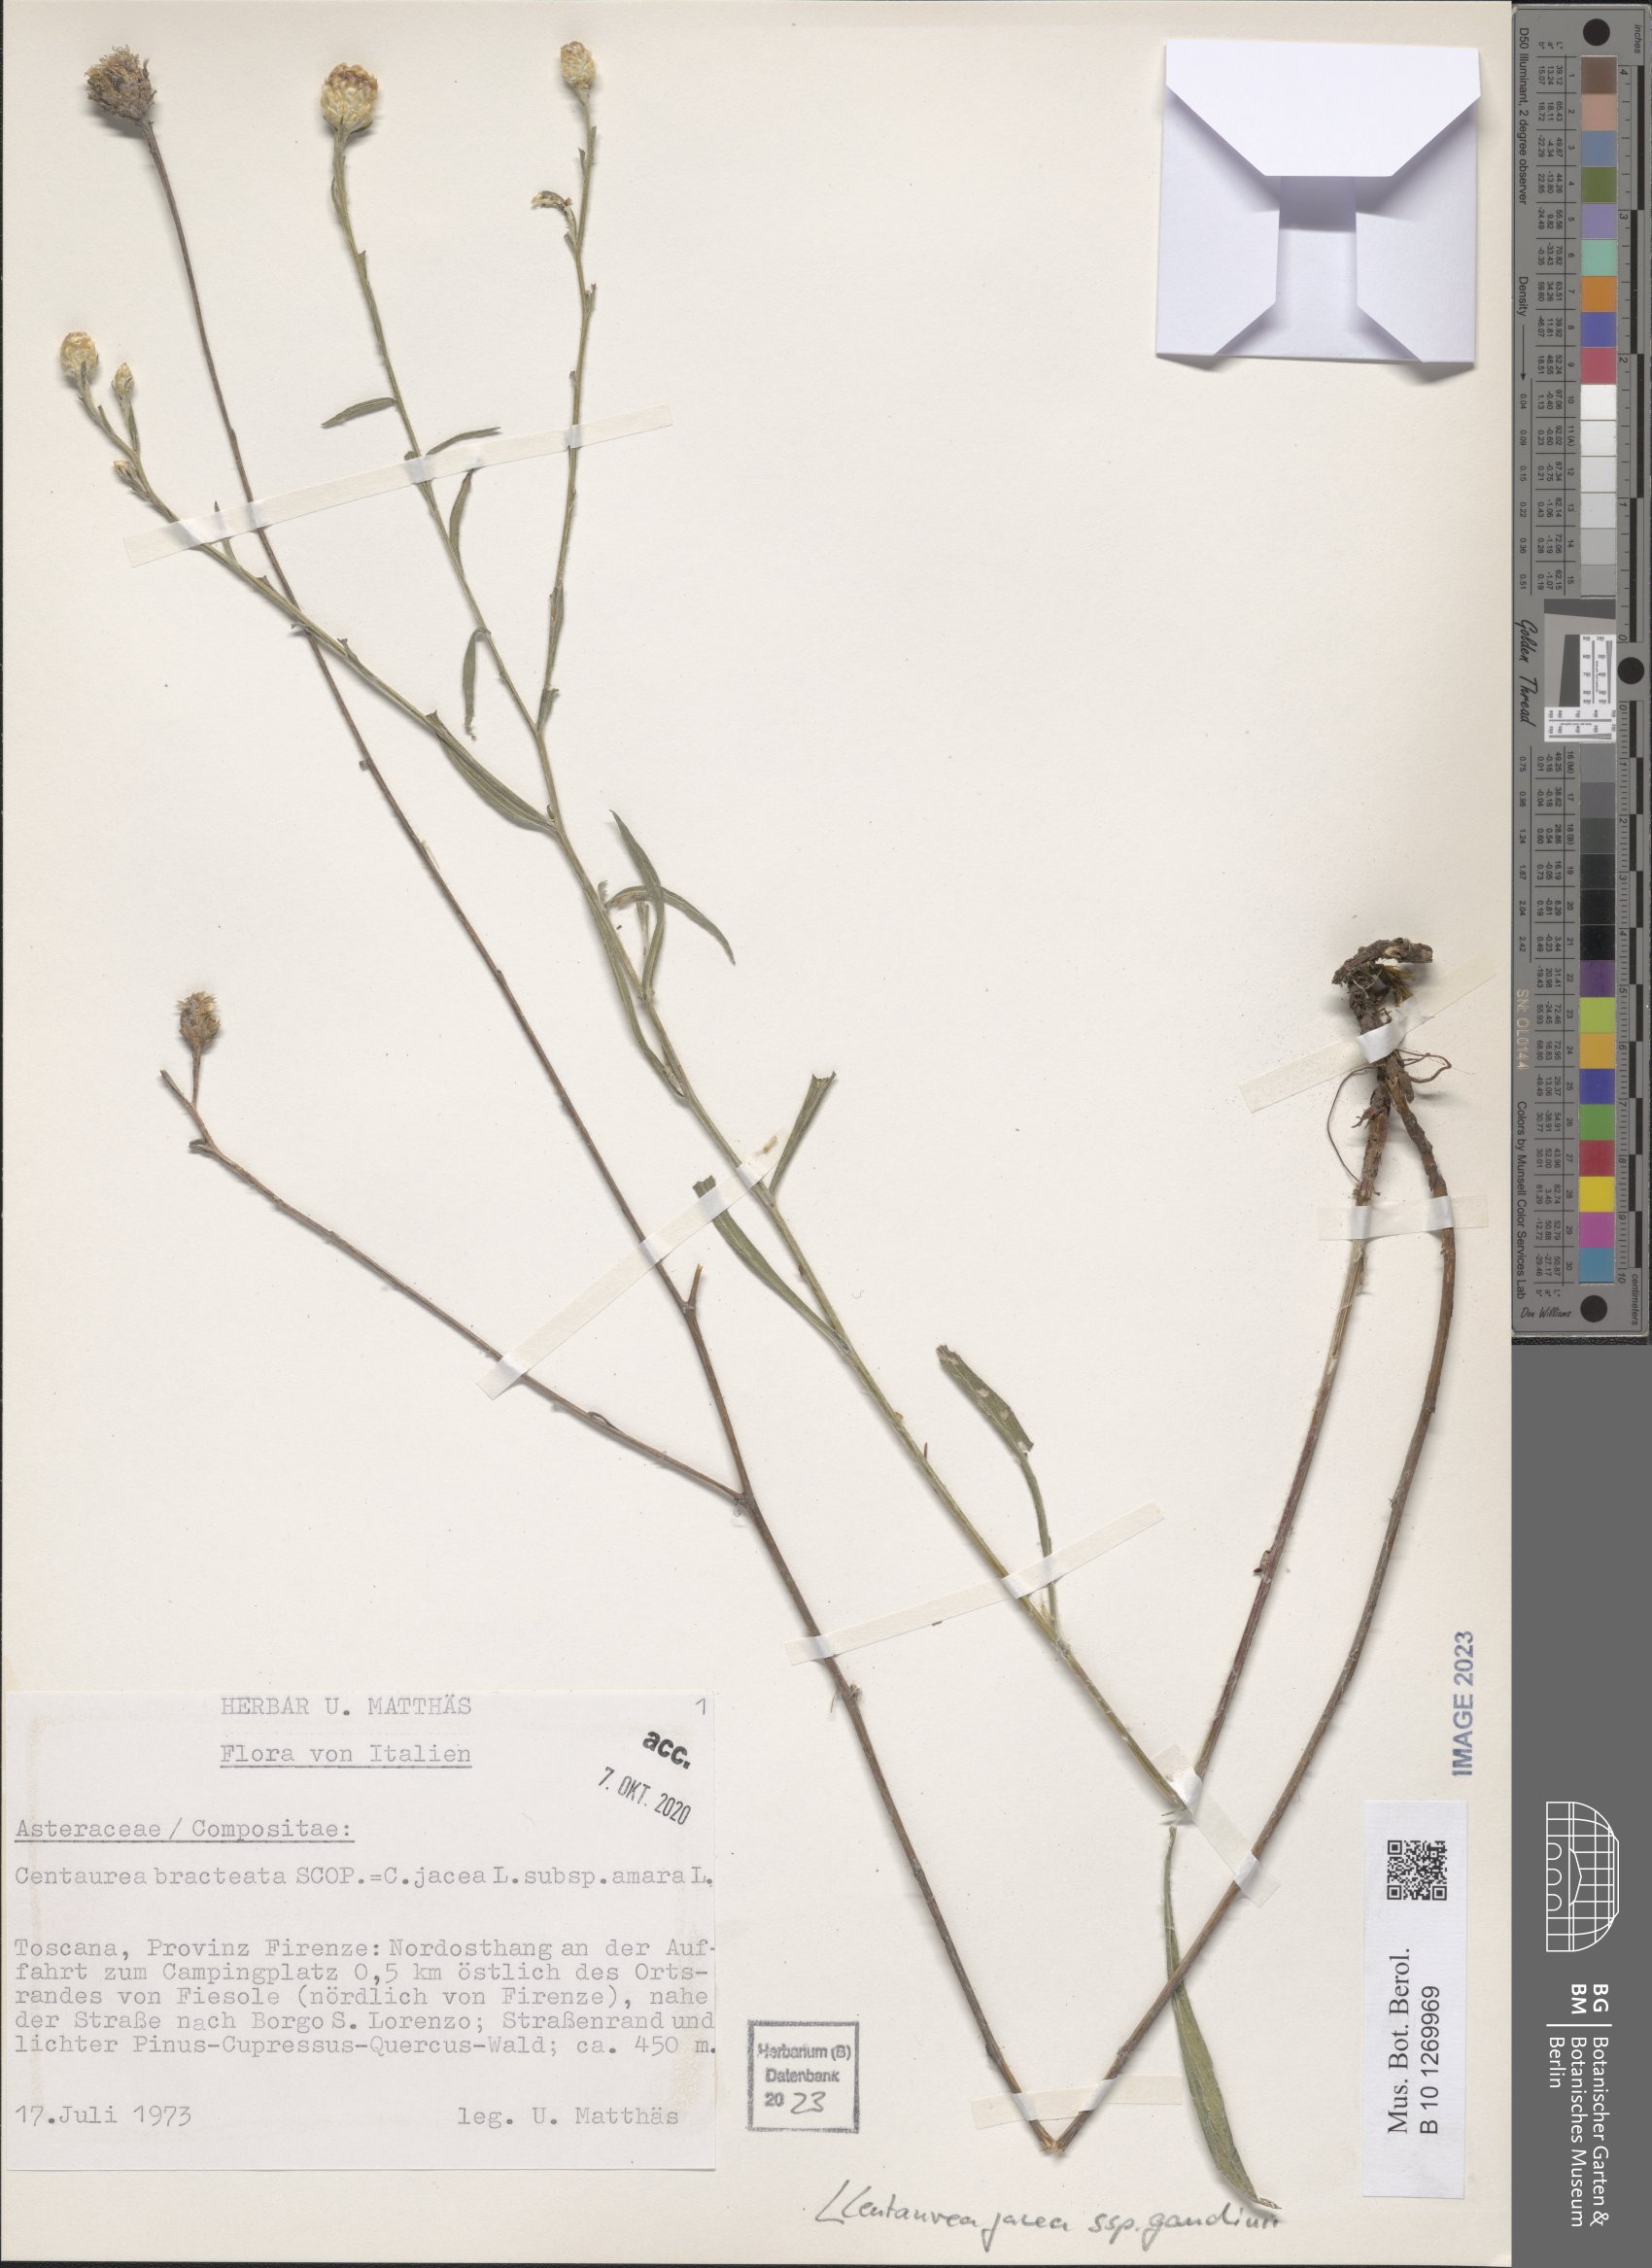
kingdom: Plantae
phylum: Tracheophyta
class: Magnoliopsida
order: Asterales
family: Asteraceae
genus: Centaurea
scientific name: Centaurea jacea
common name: Brown knapweed
